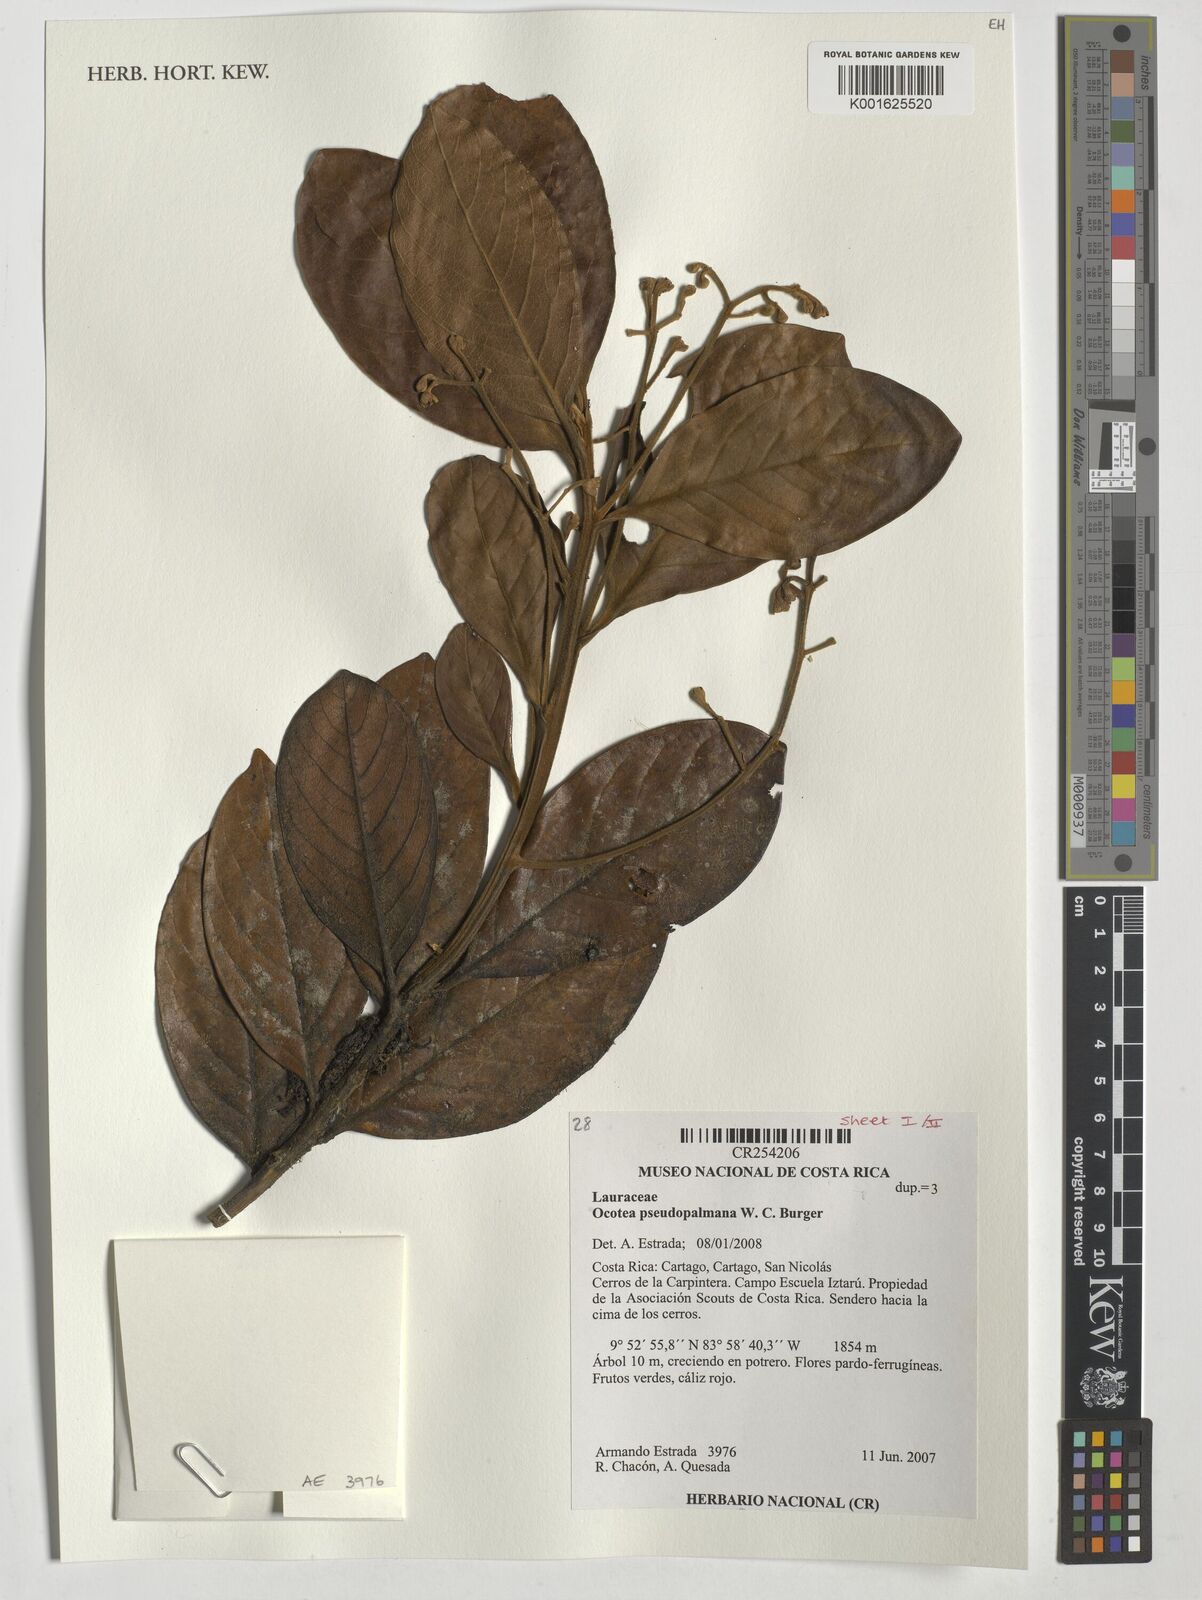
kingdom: Plantae
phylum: Tracheophyta
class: Magnoliopsida
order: Laurales
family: Lauraceae
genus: Ocotea
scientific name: Ocotea pseudopalmana
